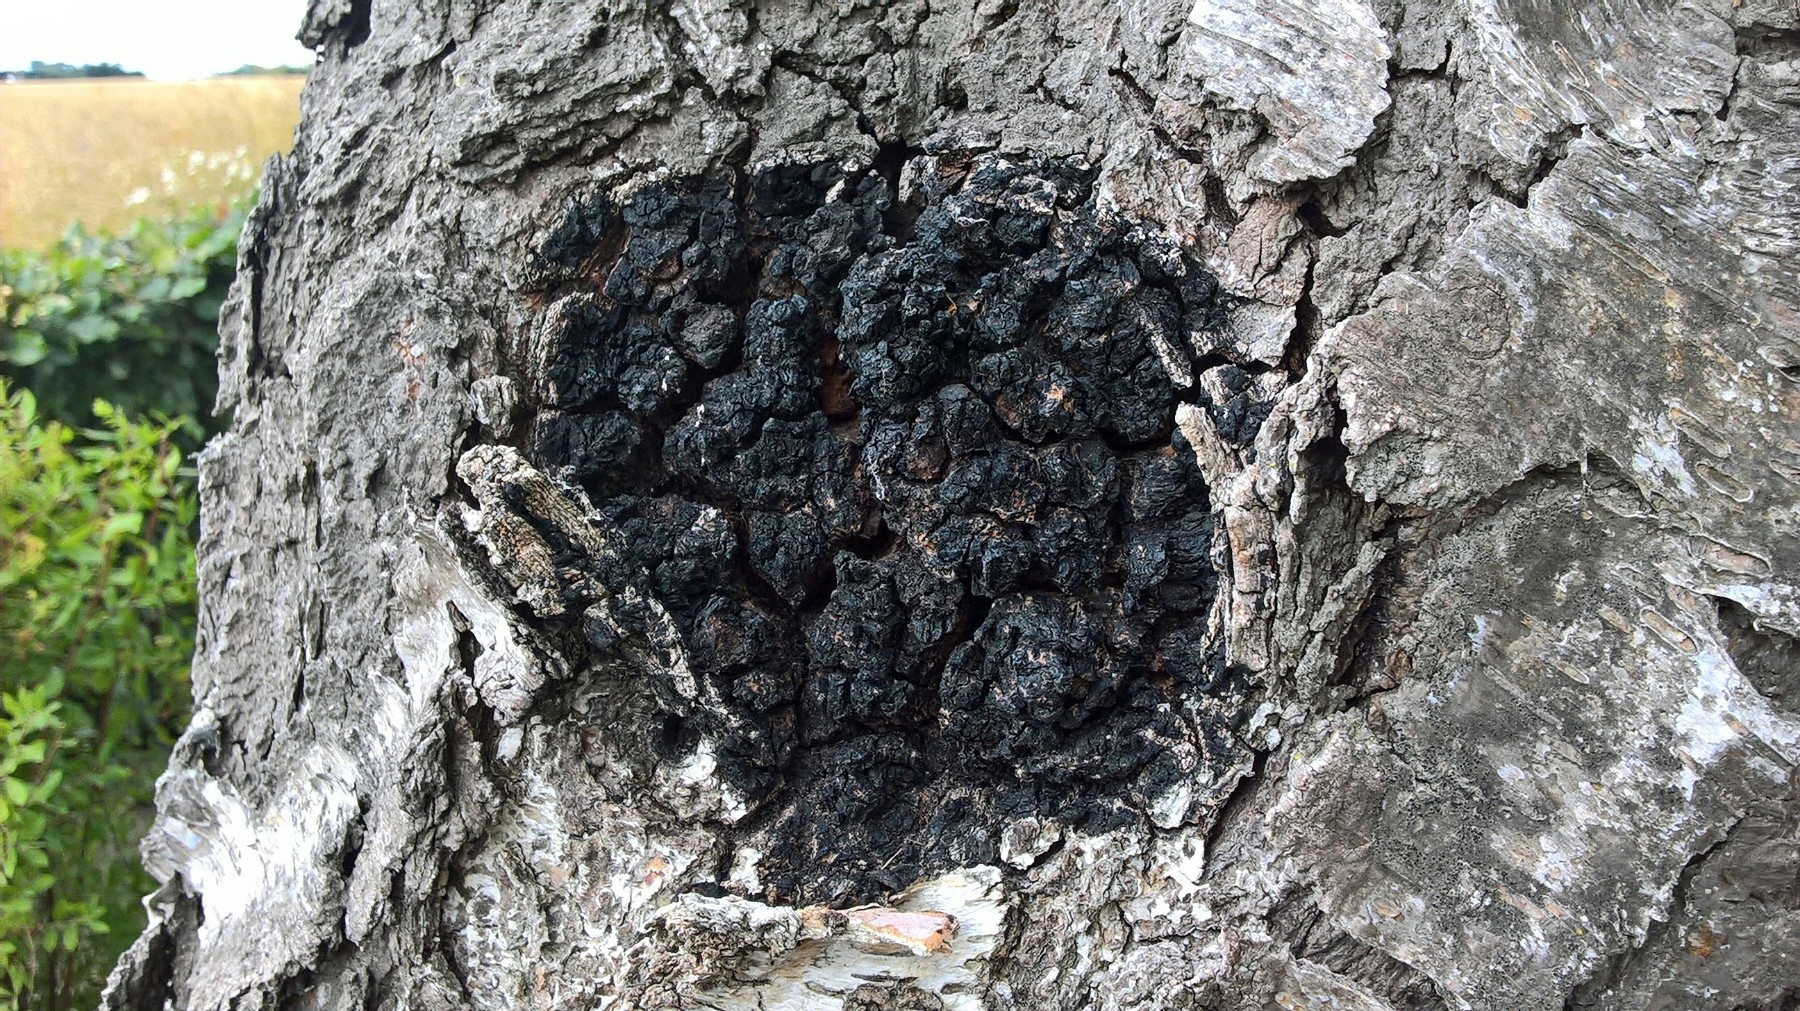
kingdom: Fungi
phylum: Basidiomycota
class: Agaricomycetes
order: Hymenochaetales
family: Hymenochaetaceae
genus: Inonotus
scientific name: Inonotus obliquus
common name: birke-spejlporesvamp
